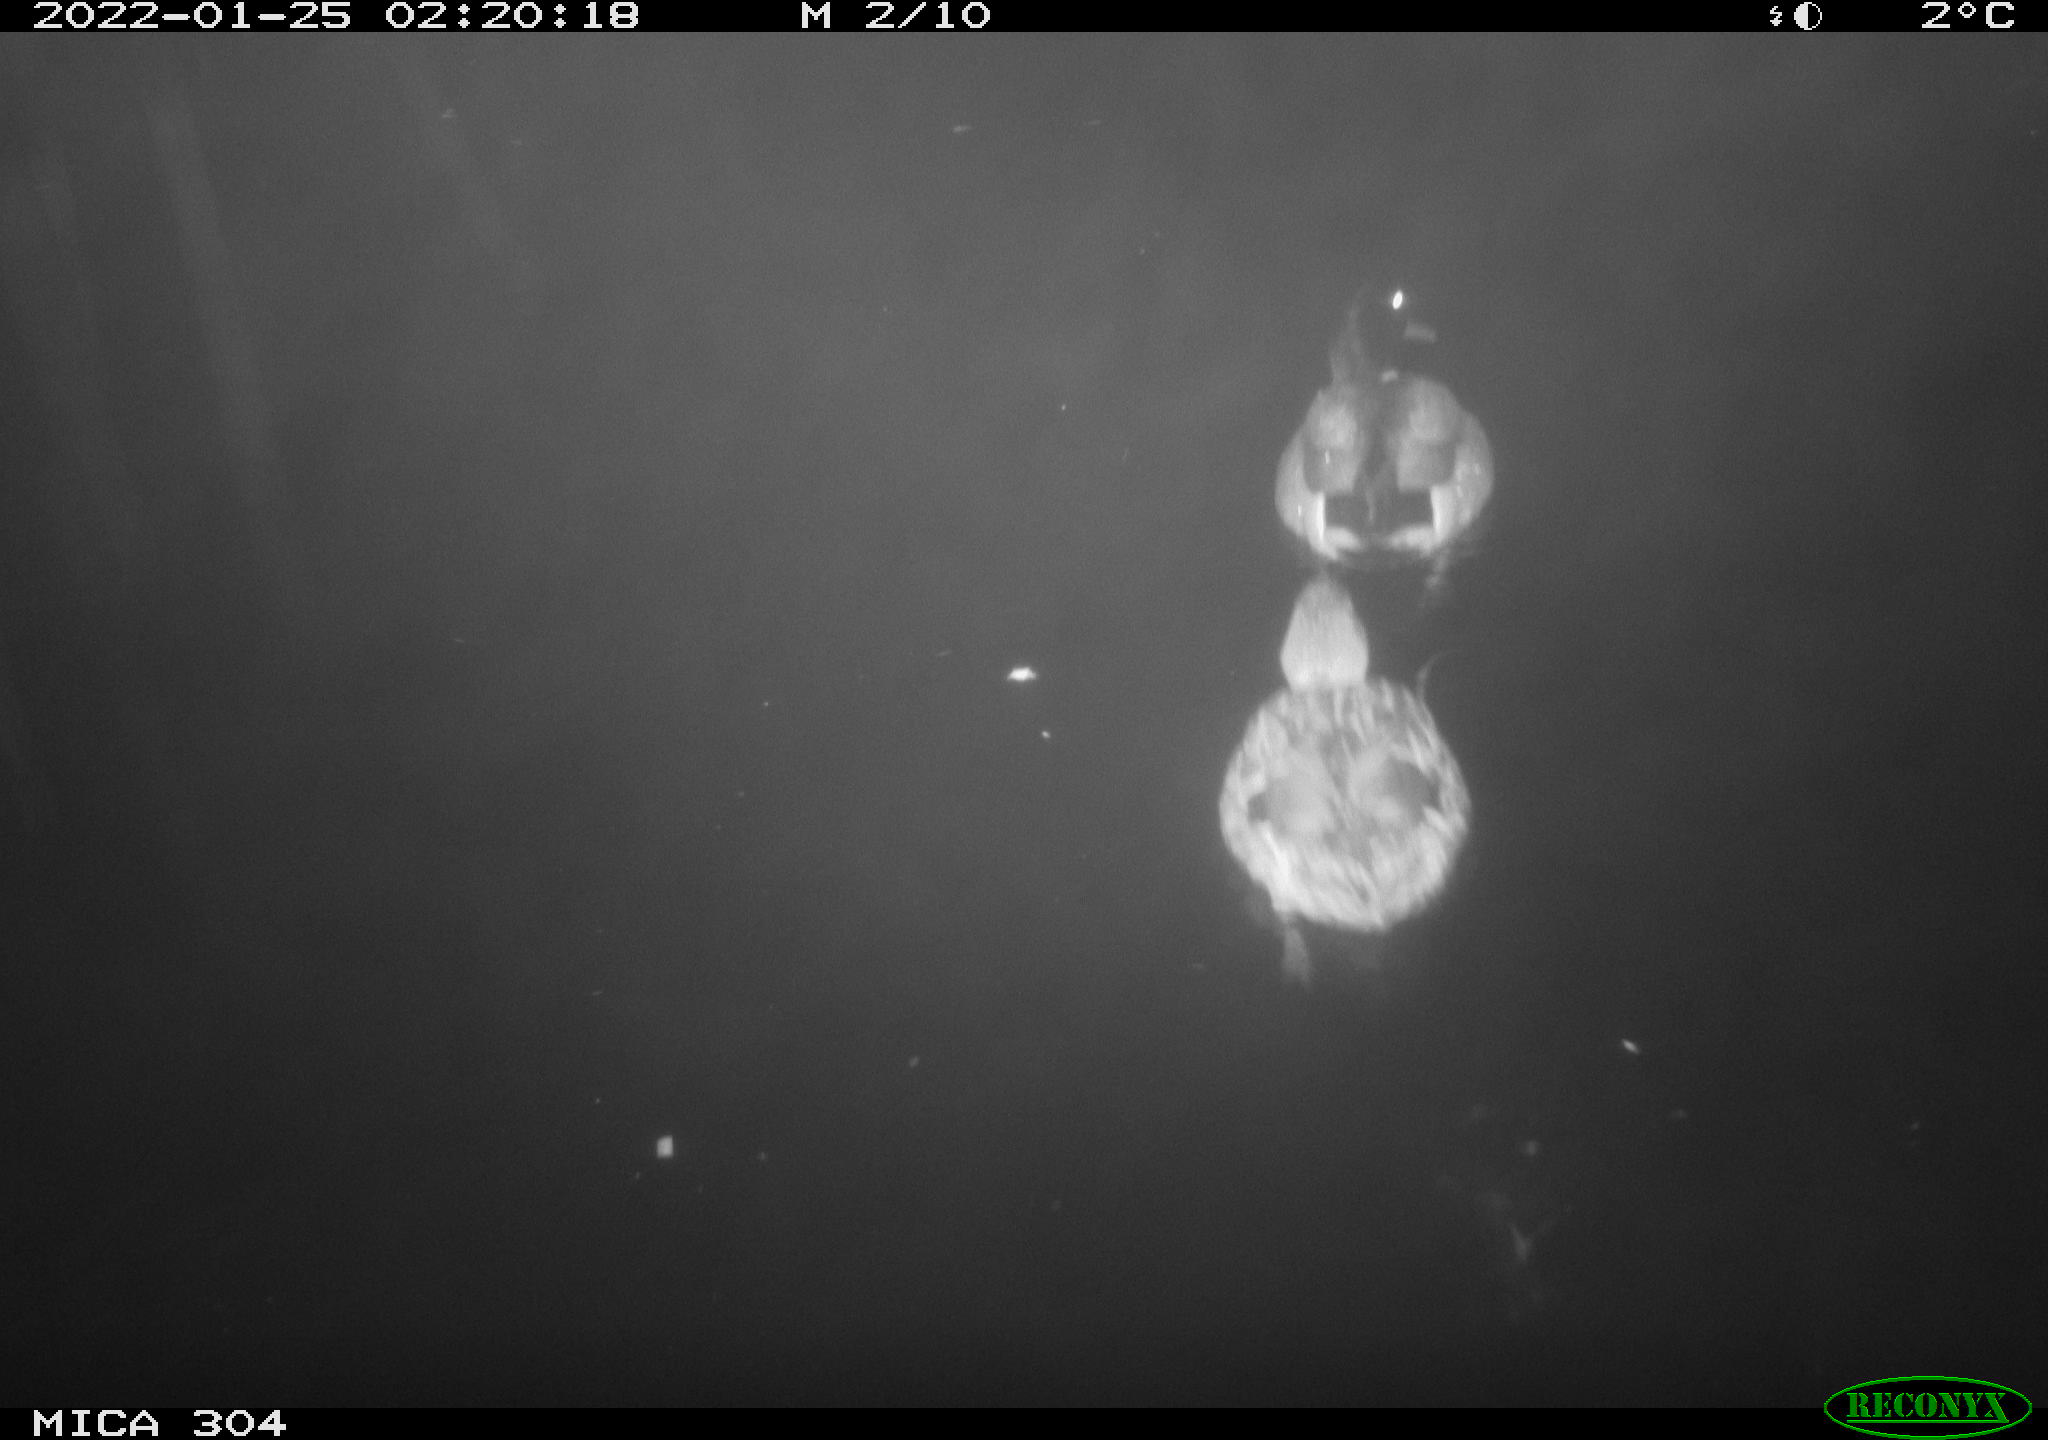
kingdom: Animalia
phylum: Chordata
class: Aves
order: Anseriformes
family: Anatidae
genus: Anas
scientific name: Anas
